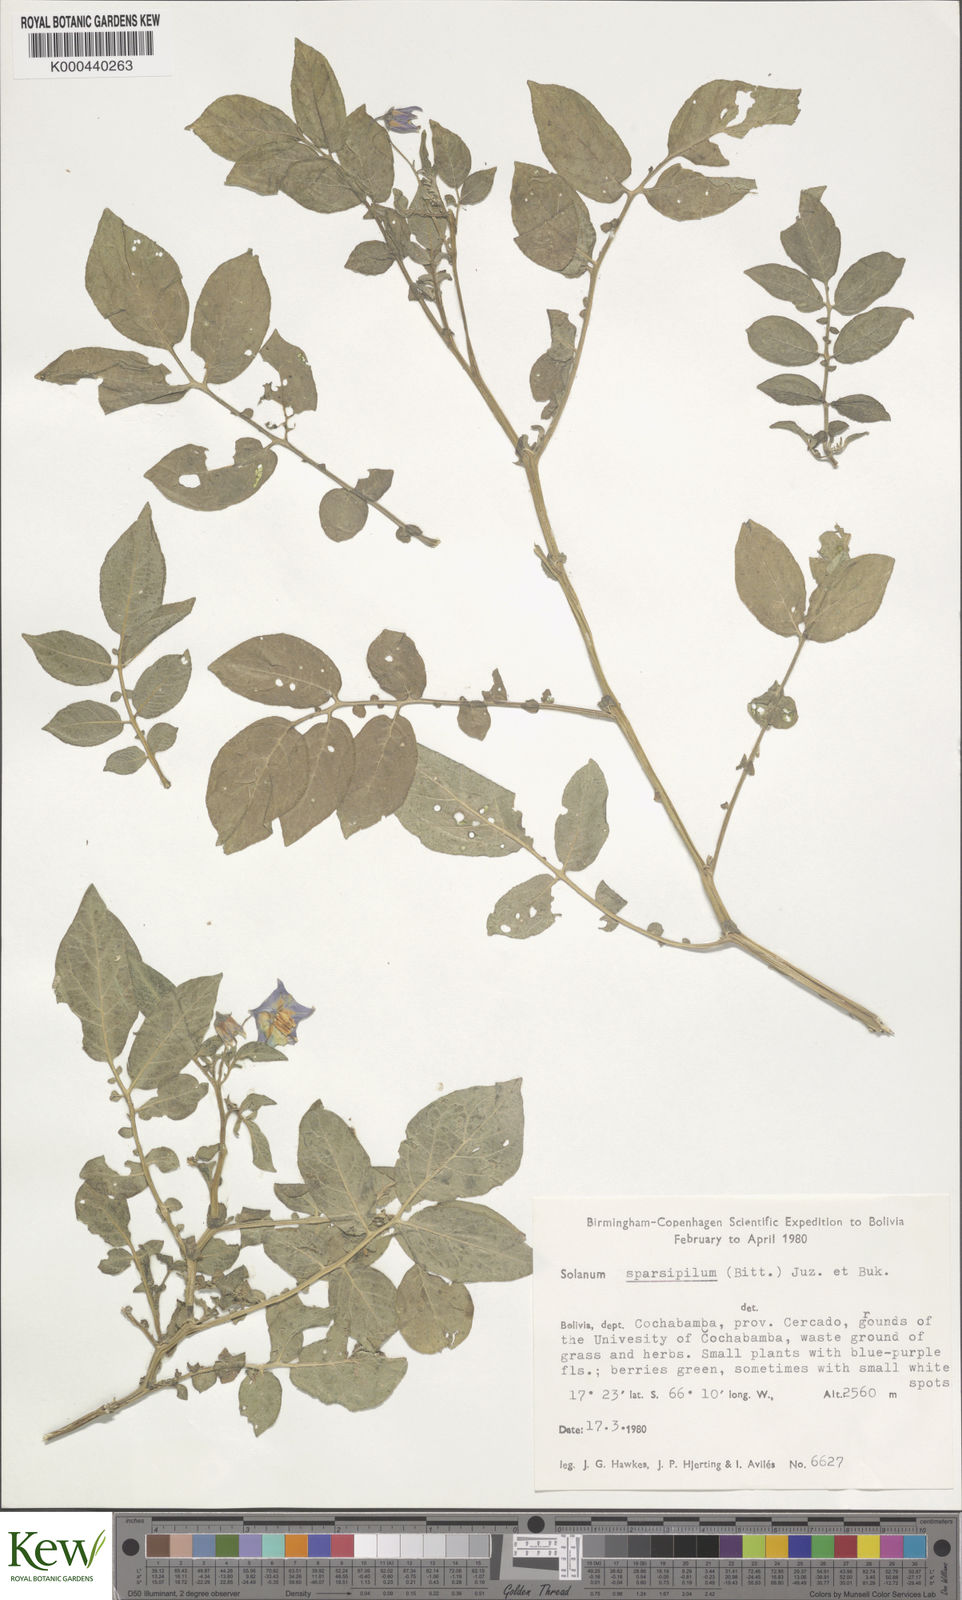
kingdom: Plantae
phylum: Tracheophyta
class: Magnoliopsida
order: Solanales
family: Solanaceae
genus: Solanum
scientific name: Solanum brevicaule
